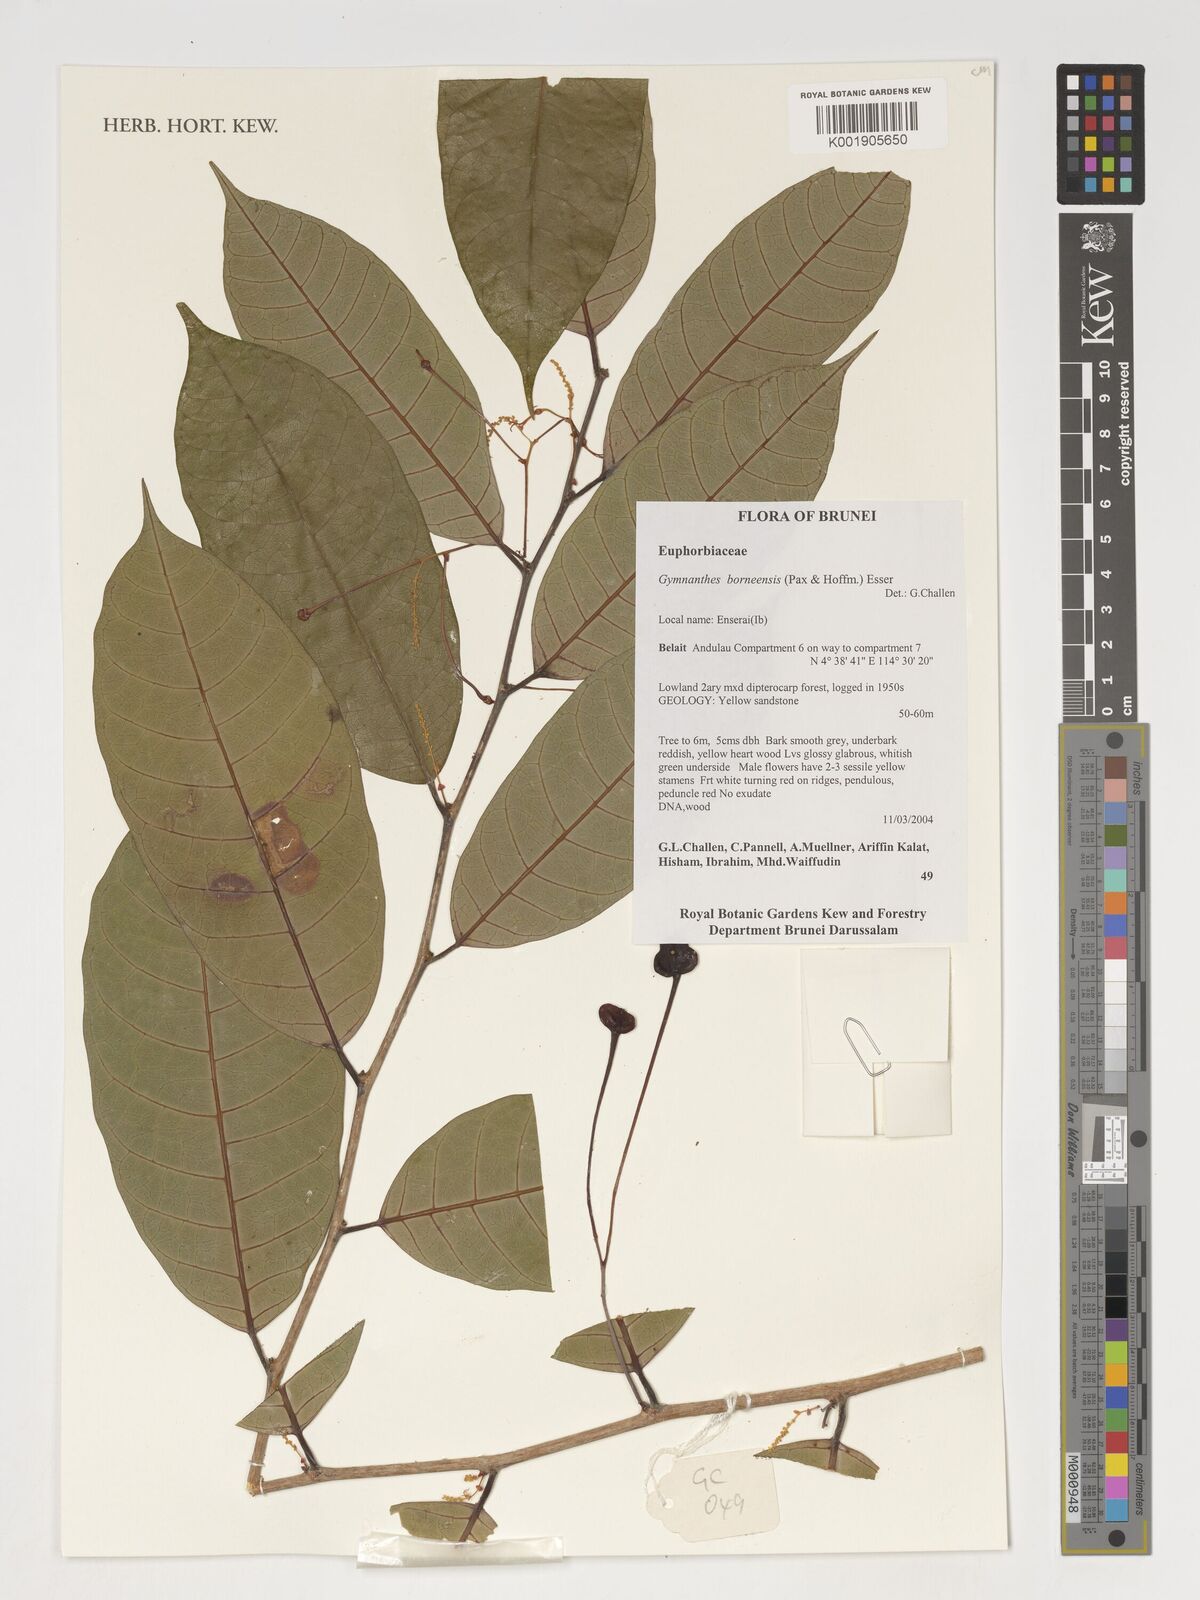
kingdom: Plantae
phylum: Tracheophyta
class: Magnoliopsida
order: Malpighiales
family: Euphorbiaceae
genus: Gymnanthes
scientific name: Gymnanthes borneensis
